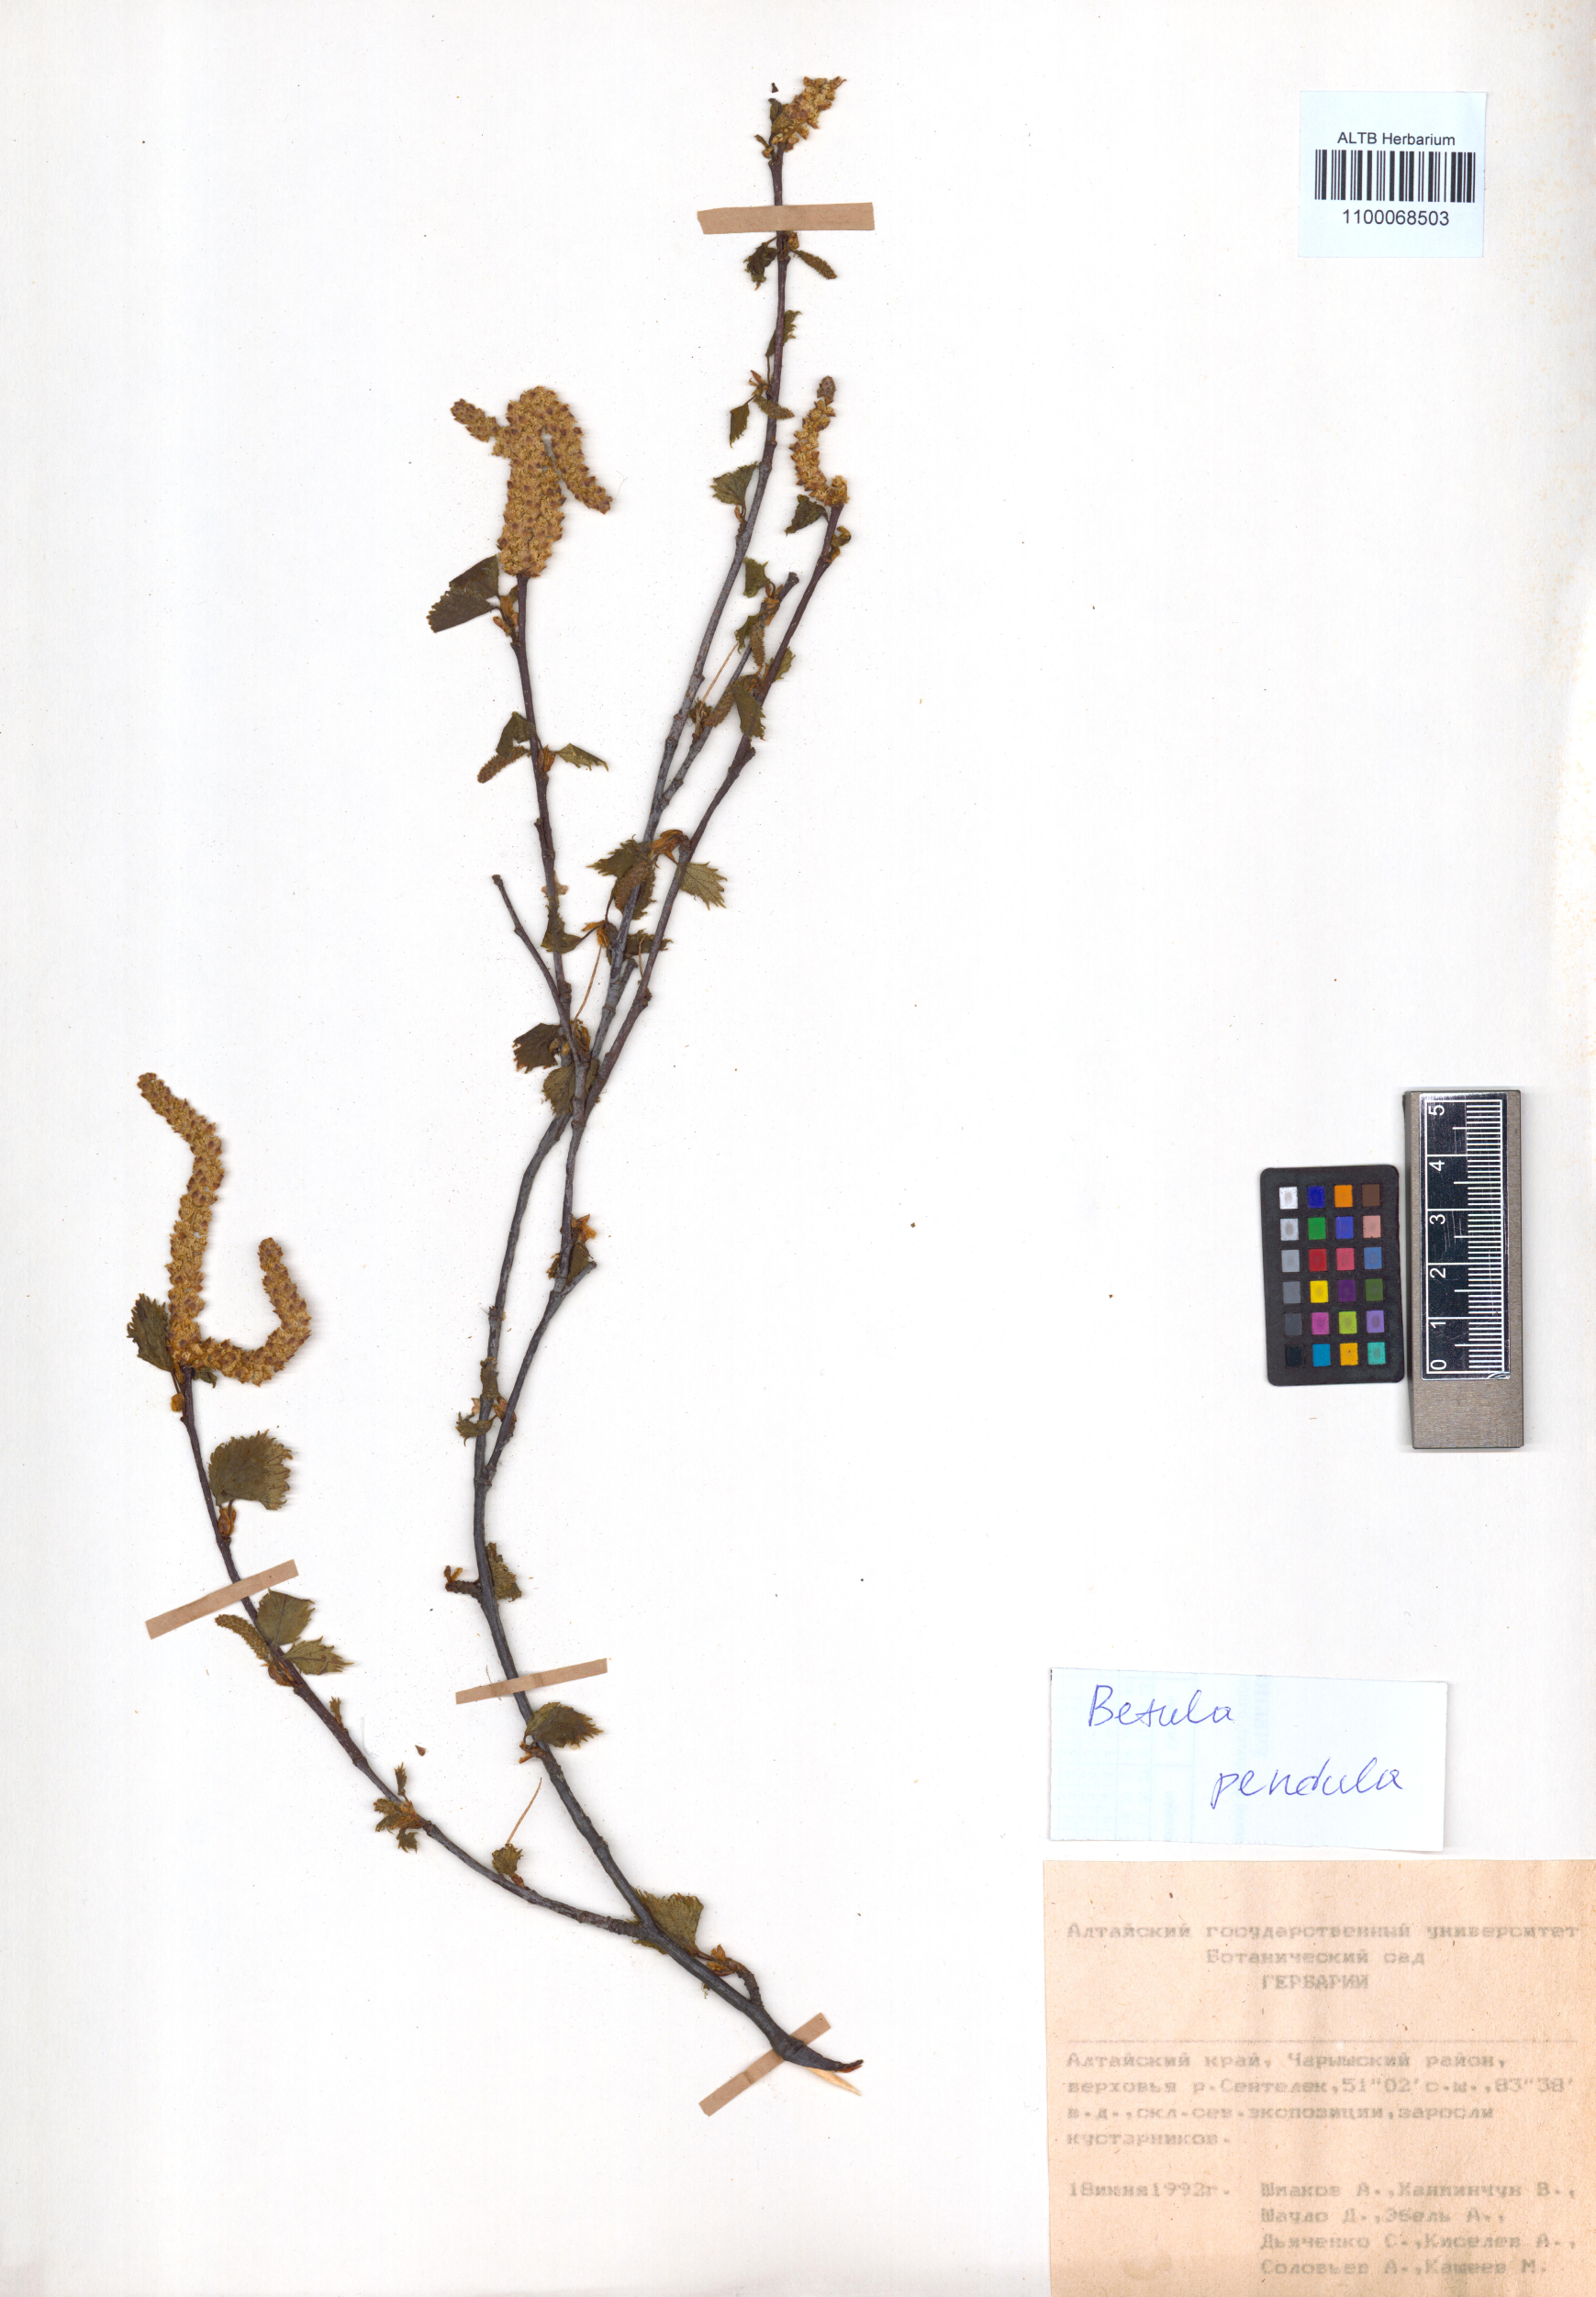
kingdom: Plantae
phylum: Tracheophyta
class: Magnoliopsida
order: Fagales
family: Betulaceae
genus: Betula
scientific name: Betula pendula
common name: Silver birch
